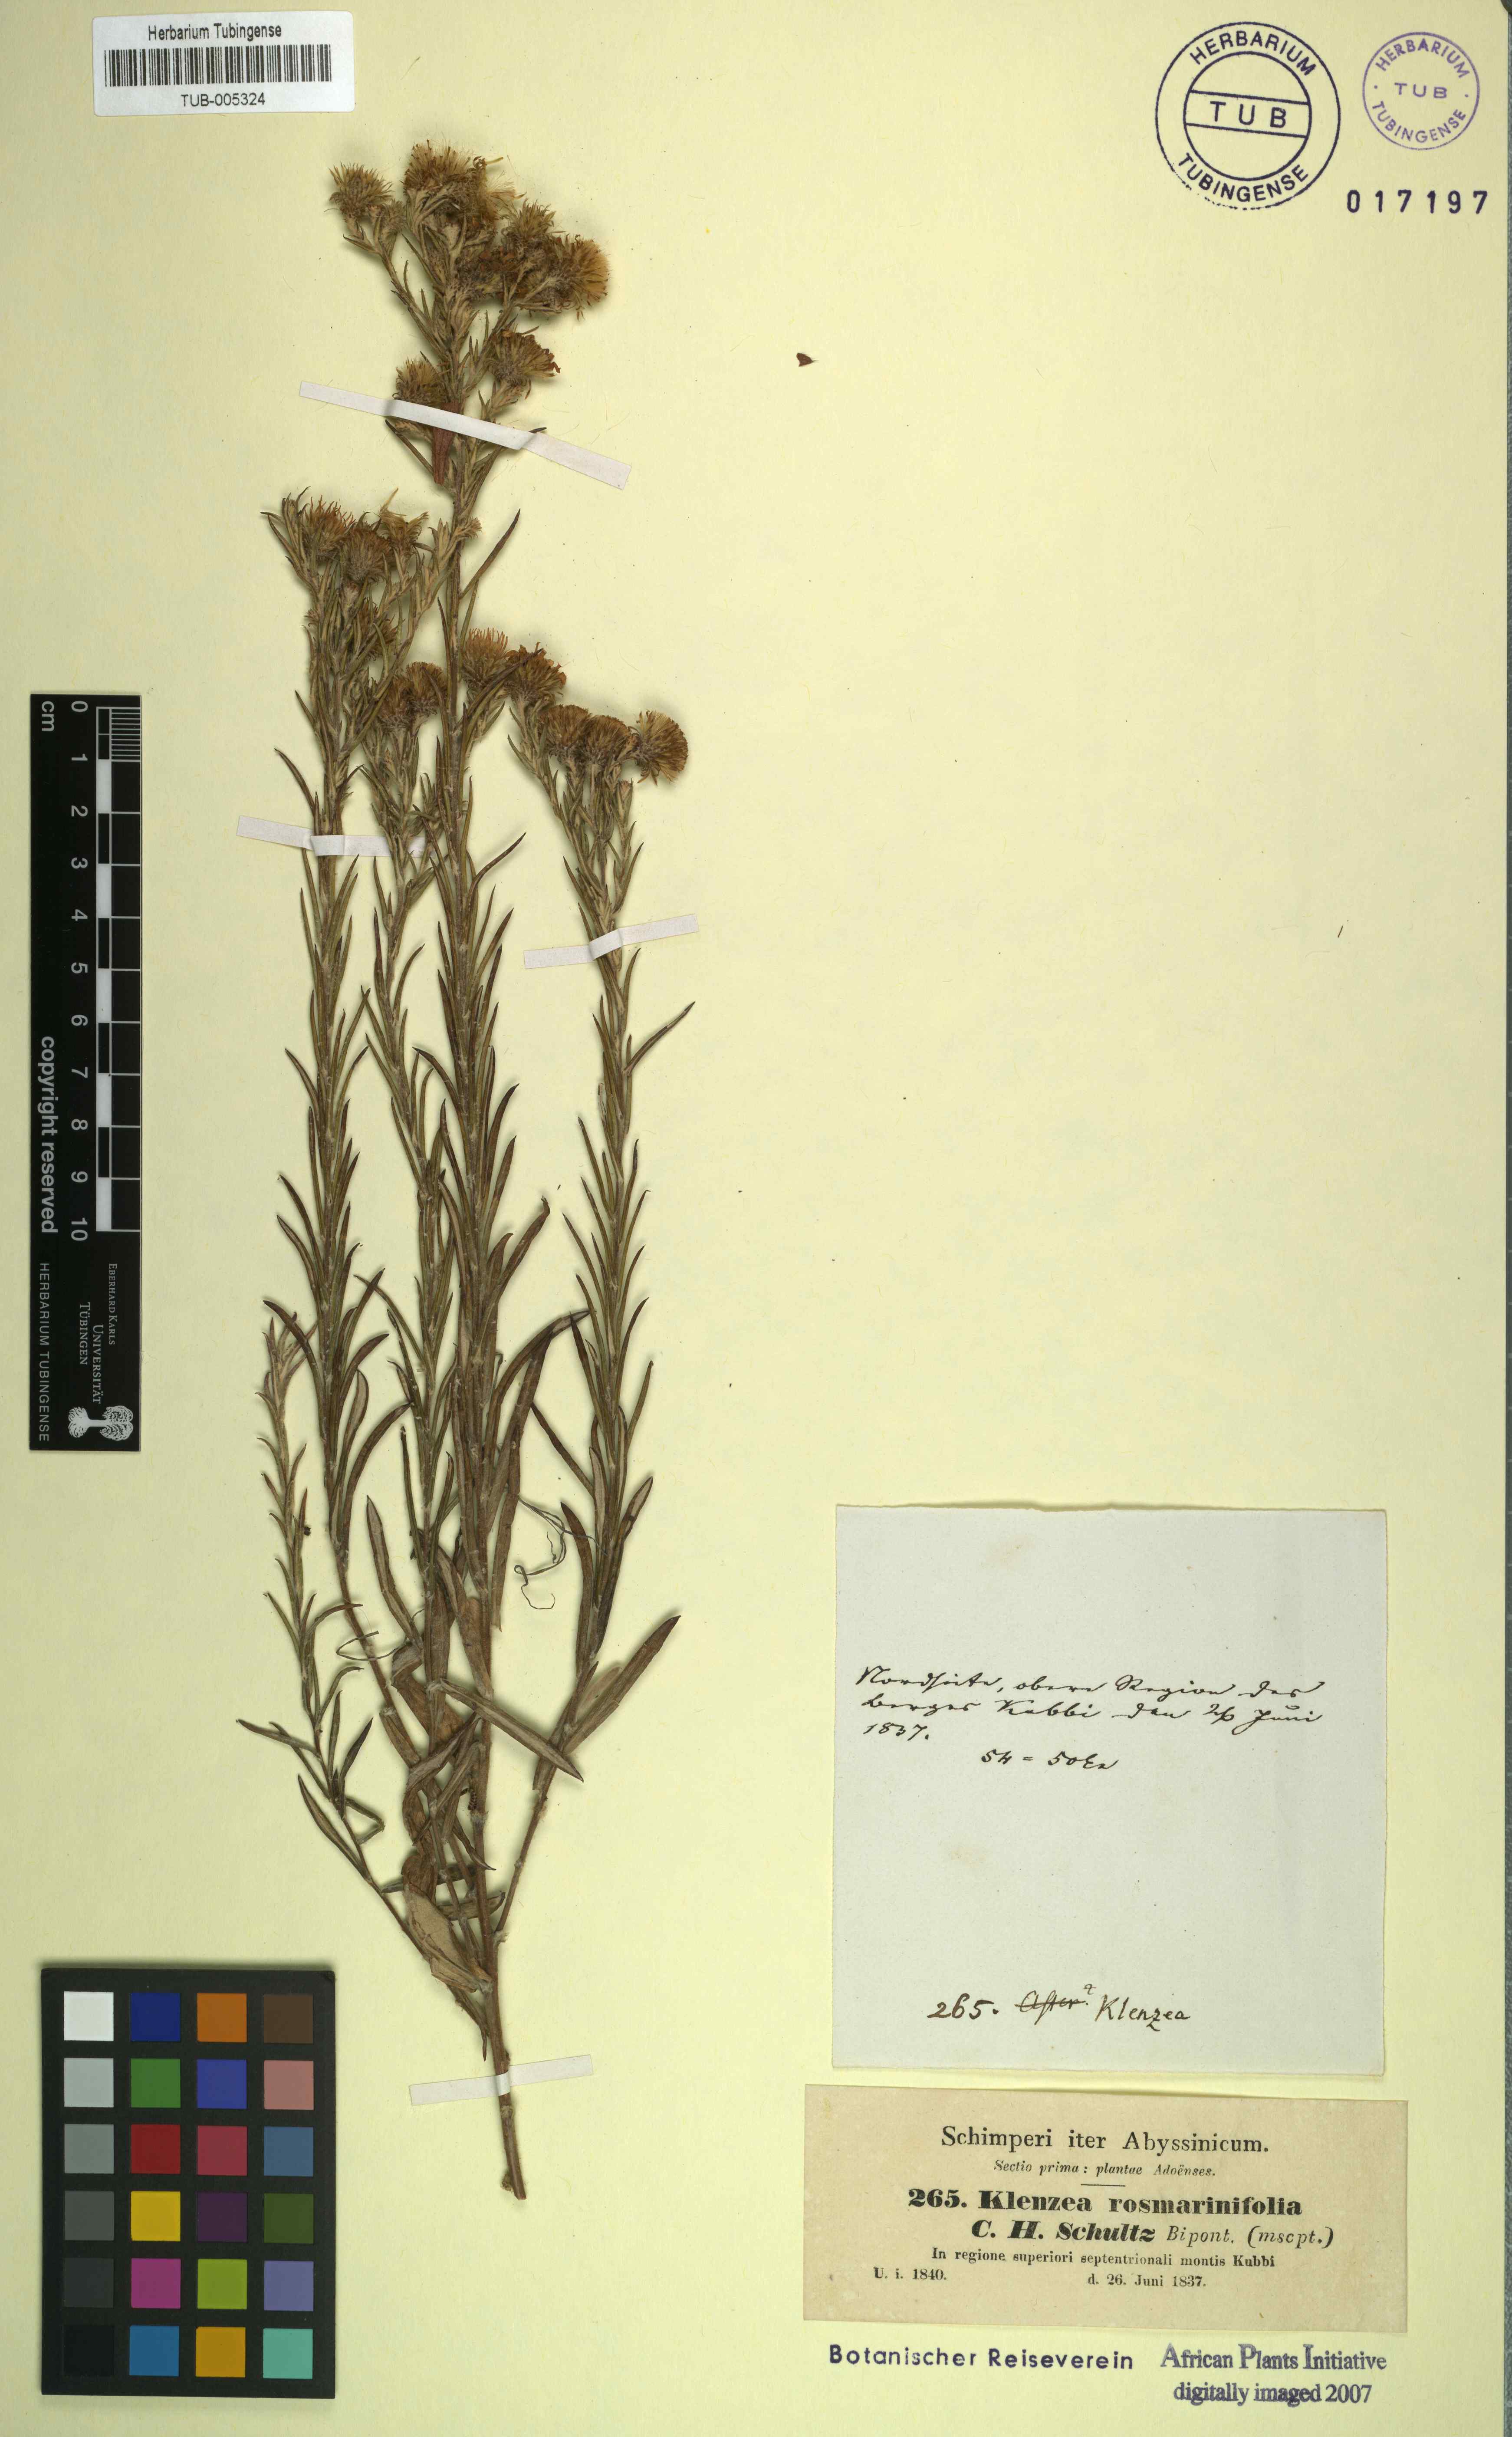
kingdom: Plantae
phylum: Tracheophyta
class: Magnoliopsida
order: Asterales
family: Asteraceae
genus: Athrixia
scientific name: Athrixia rosmarinifolia
